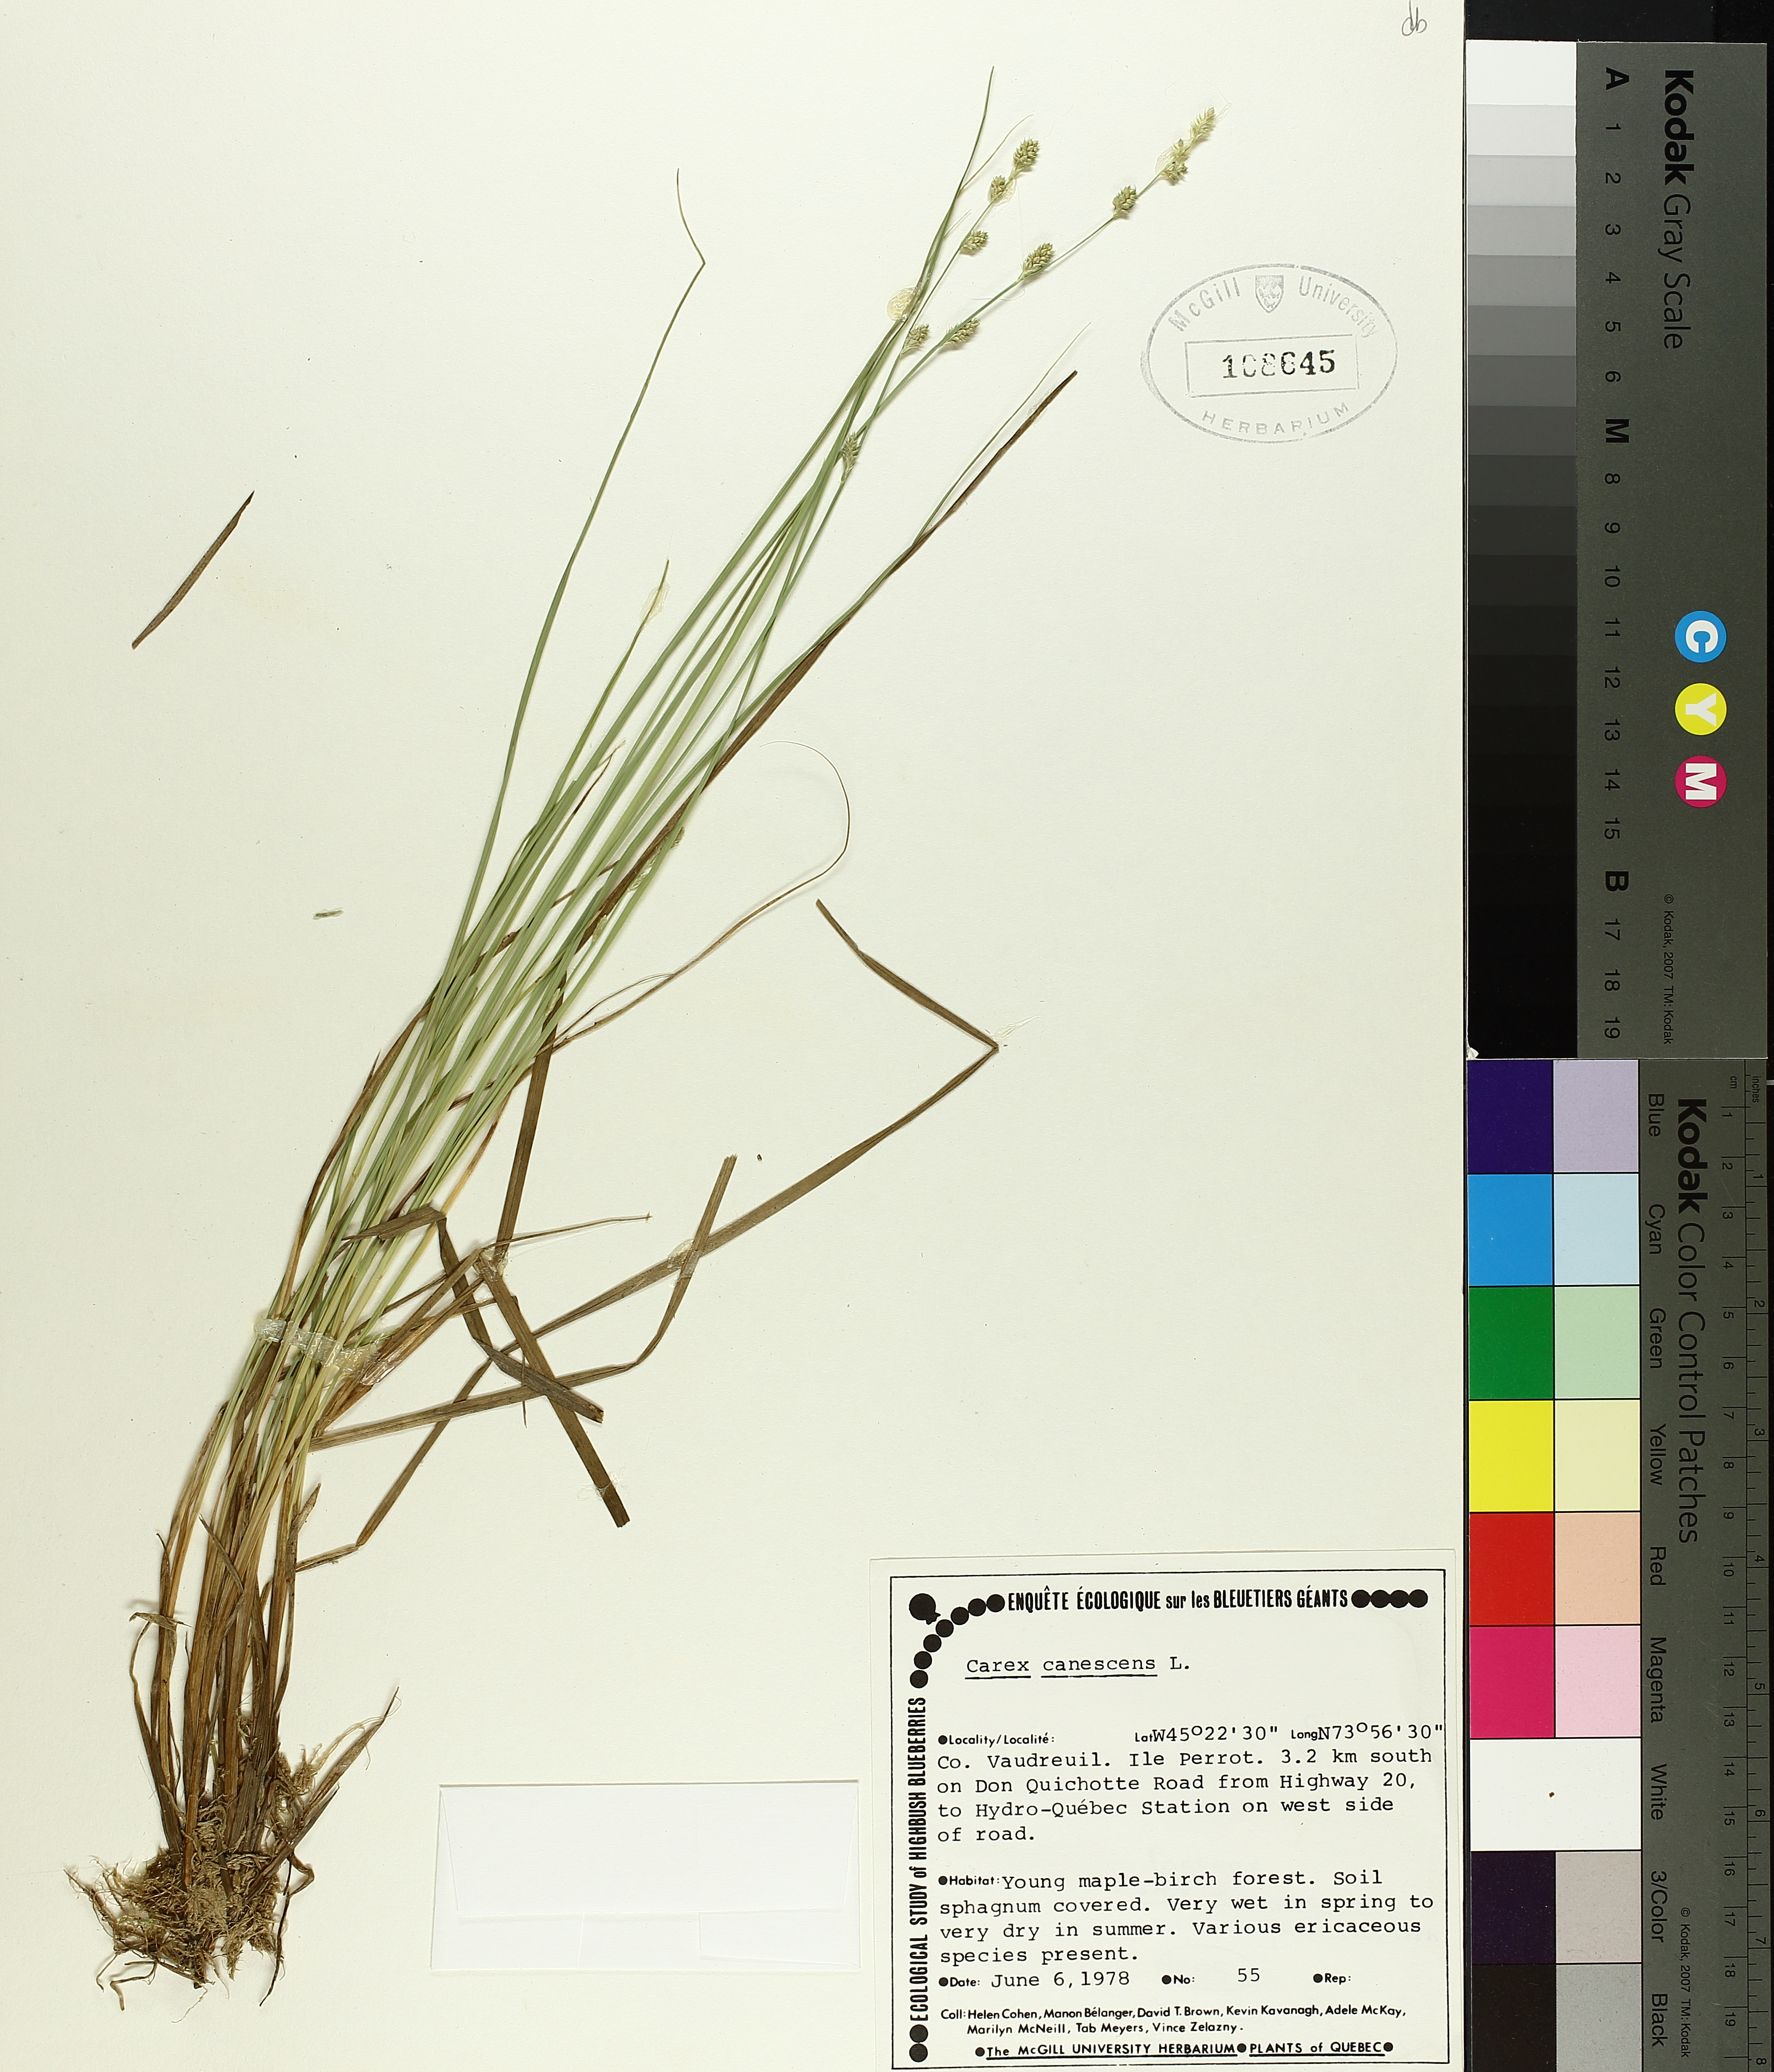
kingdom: Plantae
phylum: Tracheophyta
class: Liliopsida
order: Poales
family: Cyperaceae
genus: Carex
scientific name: Carex canescens
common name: White sedge
